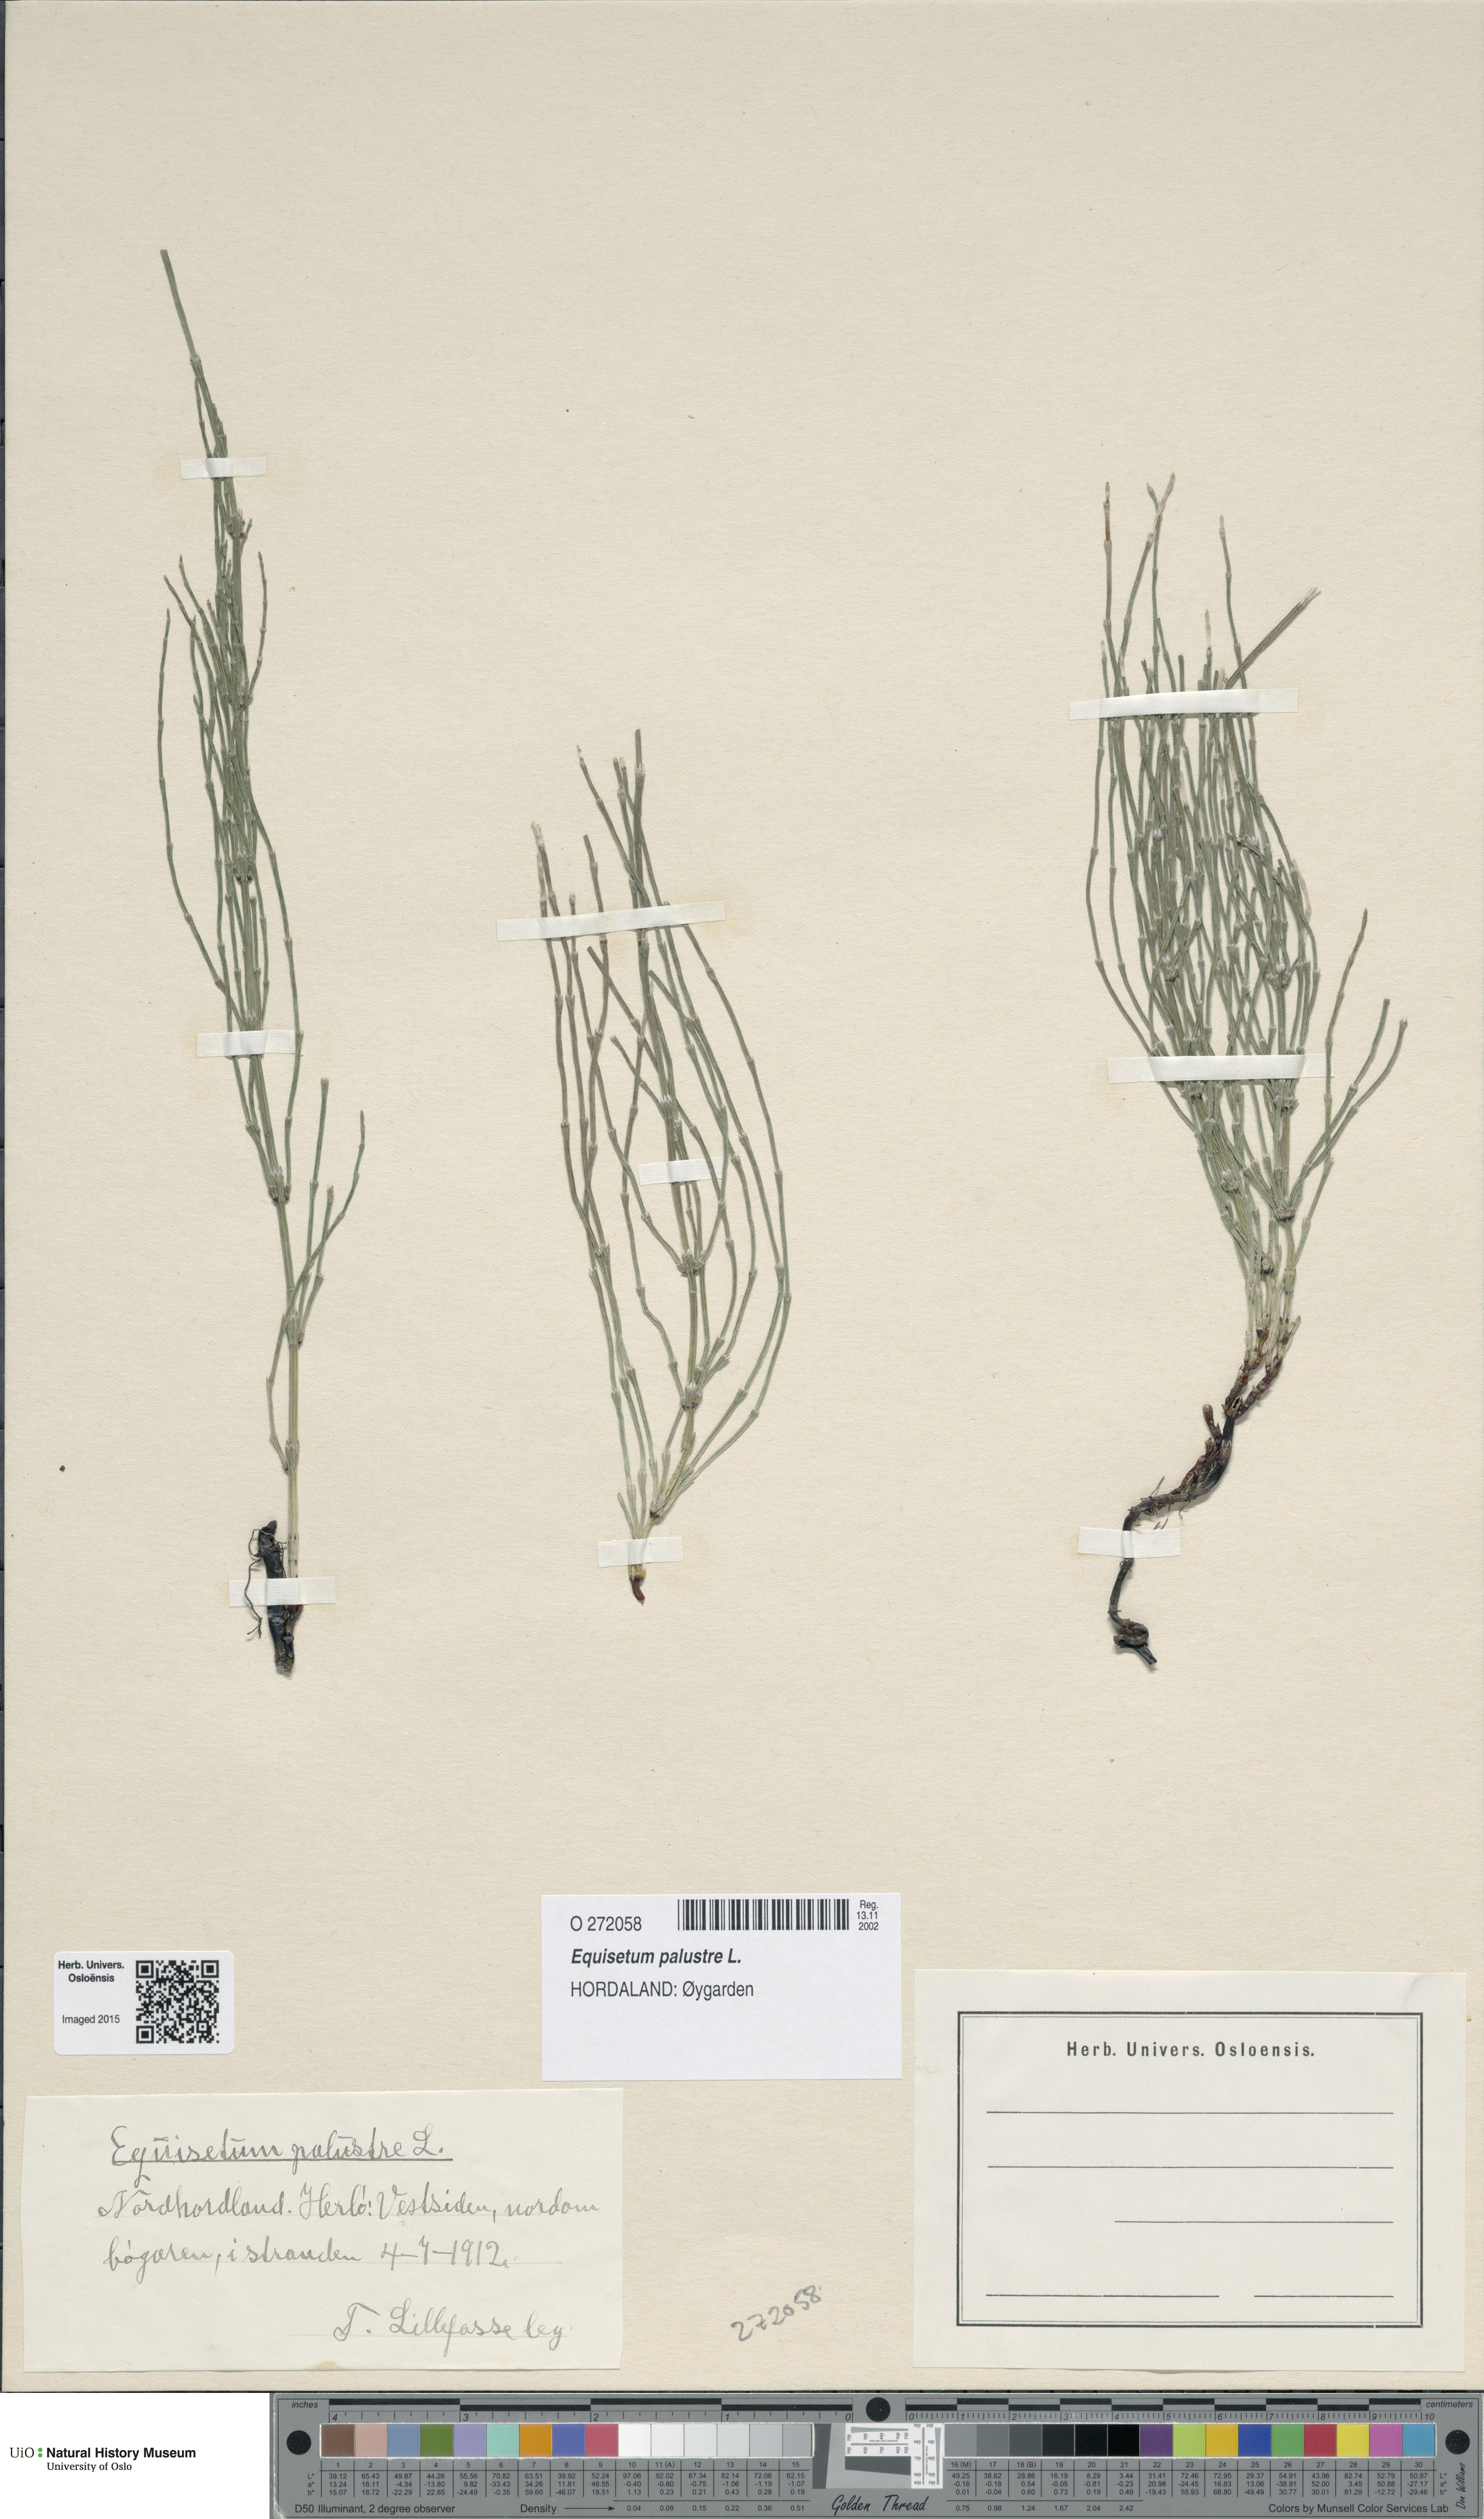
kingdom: Plantae
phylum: Tracheophyta
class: Polypodiopsida
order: Equisetales
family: Equisetaceae
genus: Equisetum
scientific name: Equisetum palustre
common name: Marsh horsetail
